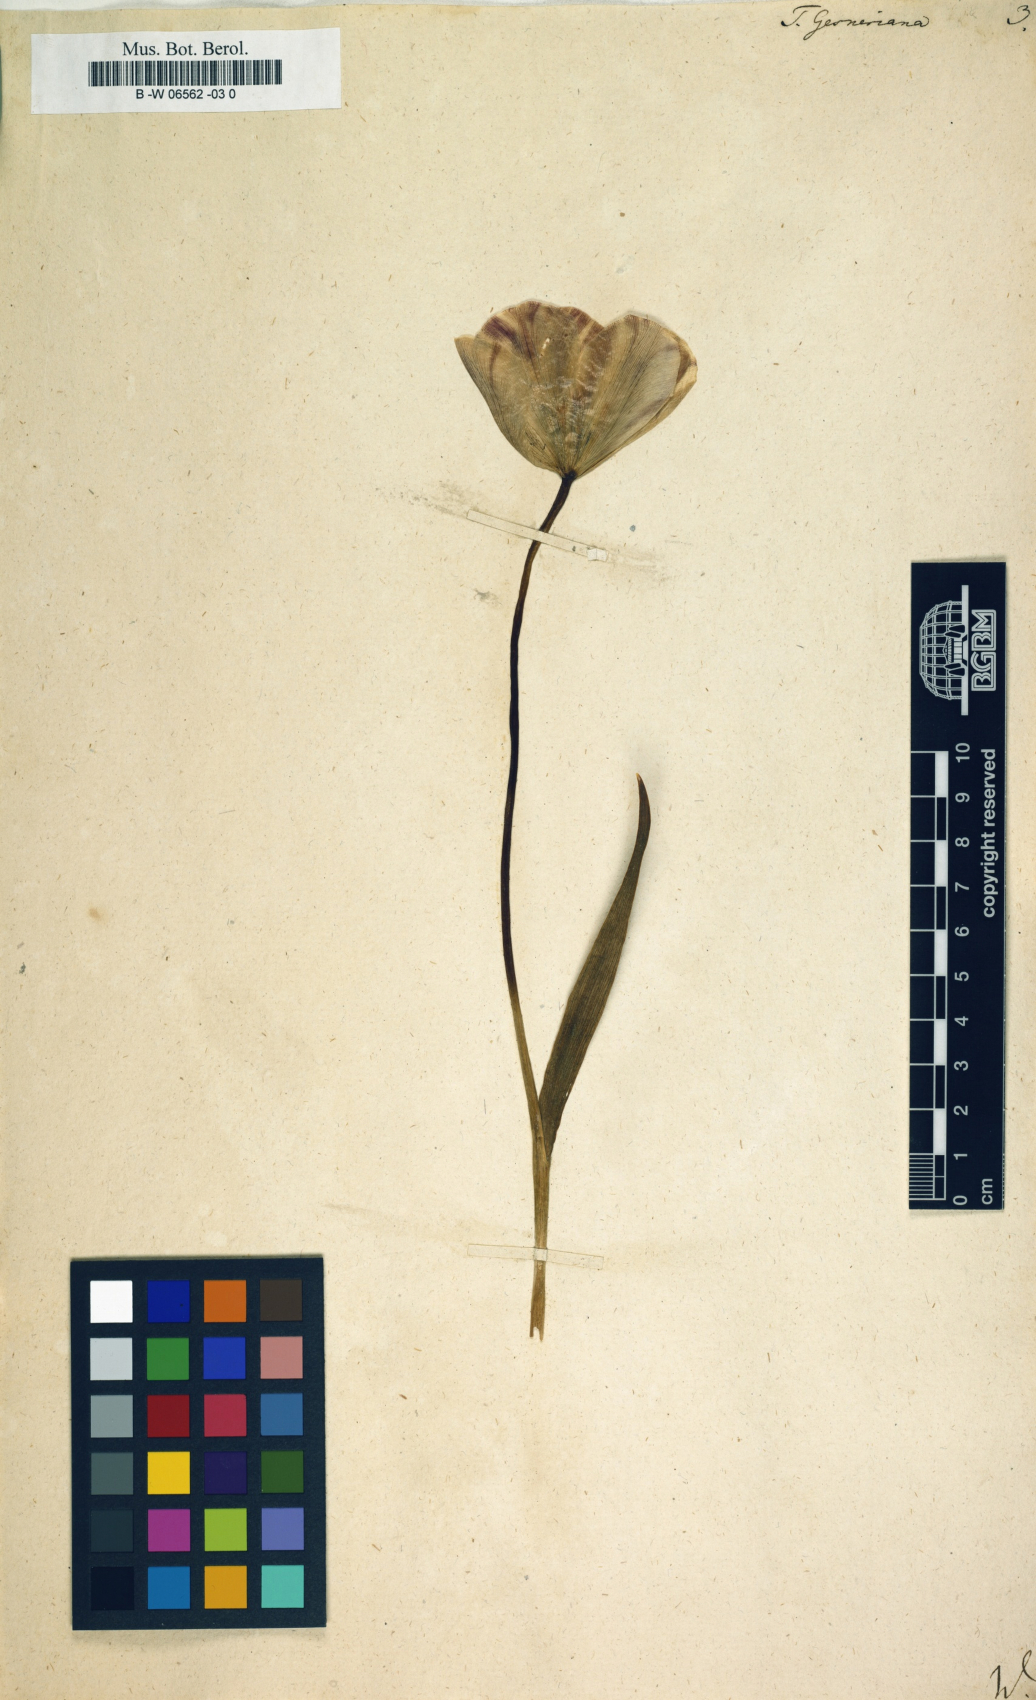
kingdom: Plantae
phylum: Tracheophyta
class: Liliopsida
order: Liliales
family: Liliaceae
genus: Tulipa
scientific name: Tulipa gesneriana
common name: Garden tulip
